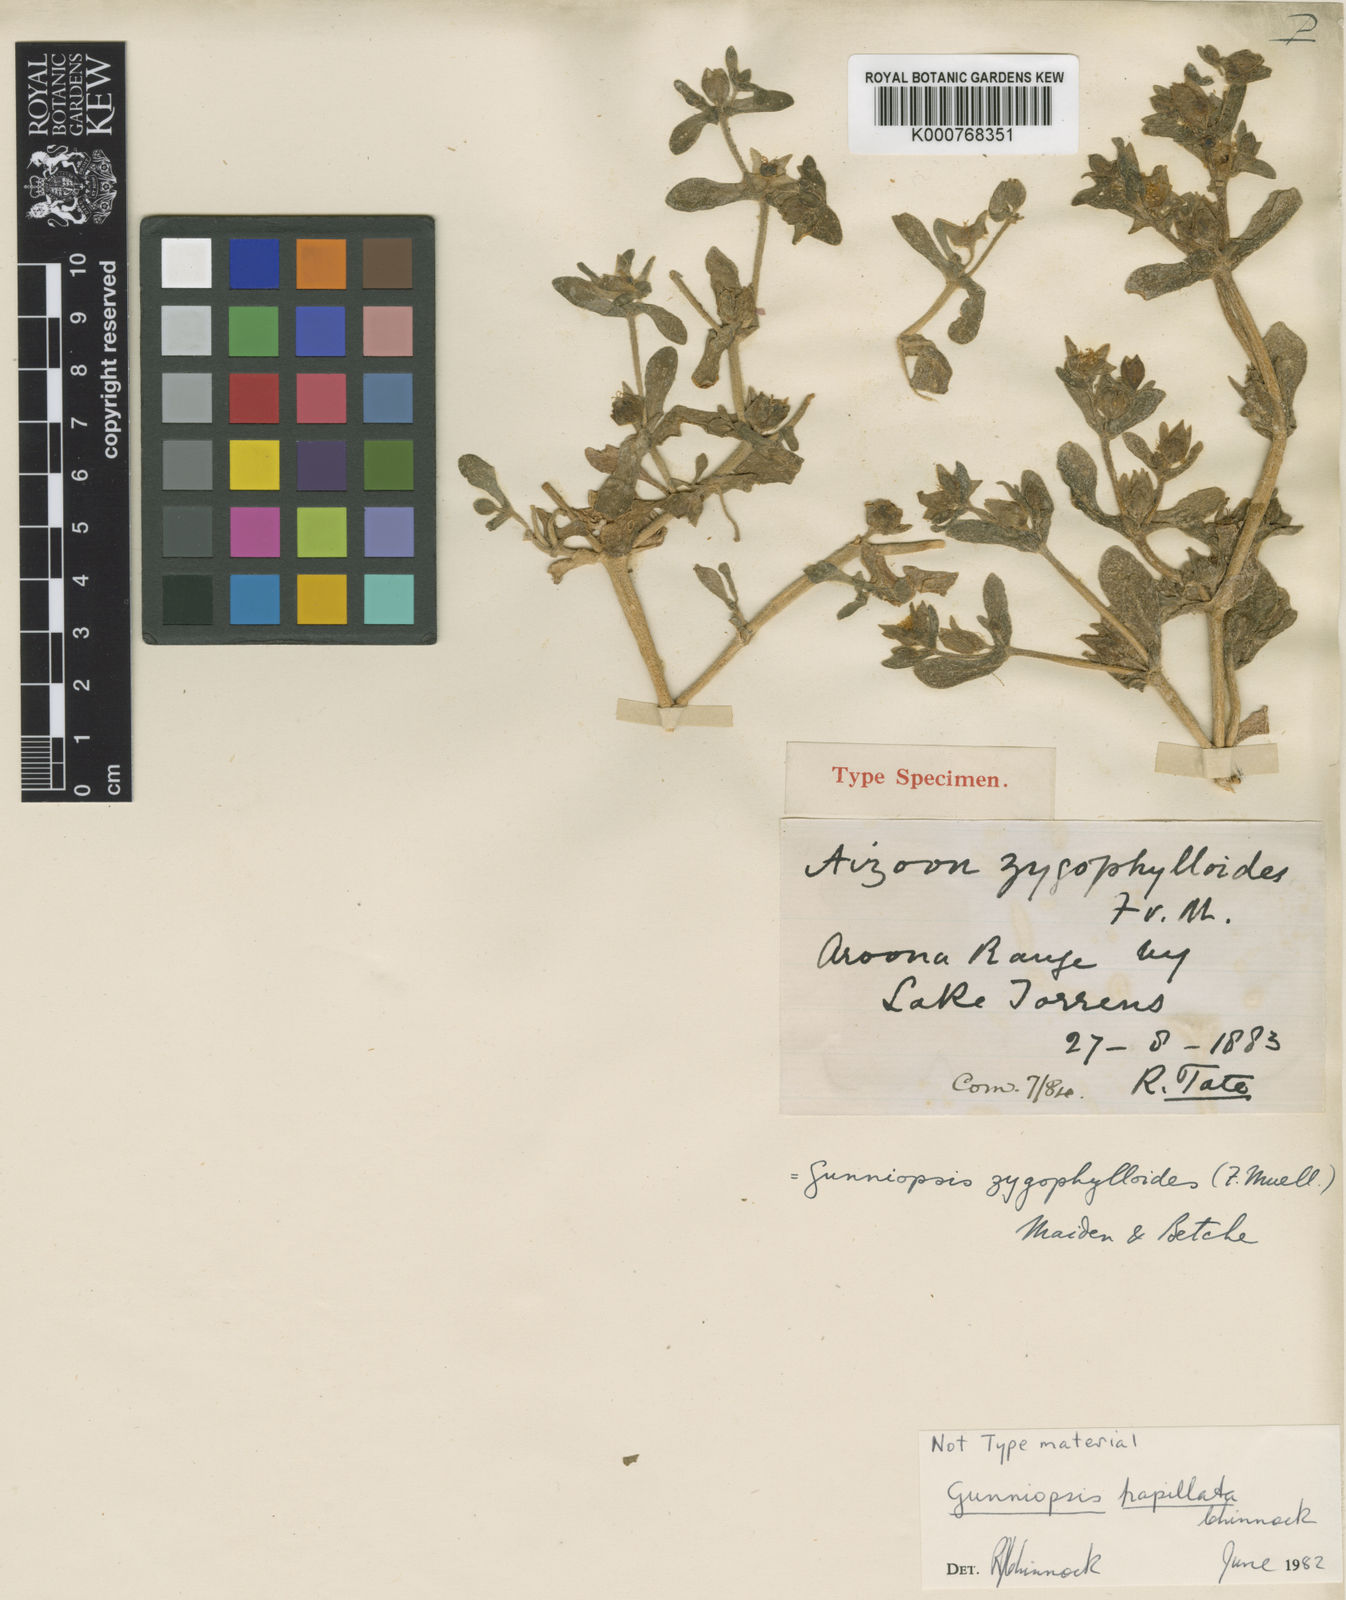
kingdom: Plantae
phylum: Tracheophyta
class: Magnoliopsida
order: Caryophyllales
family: Aizoaceae
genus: Gunniopsis
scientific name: Gunniopsis
